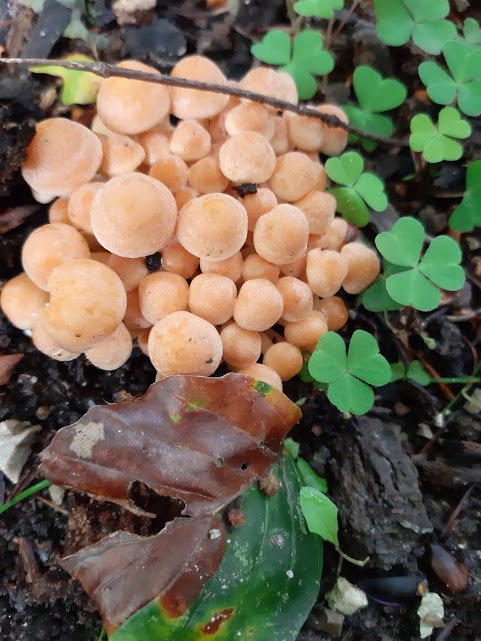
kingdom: Fungi
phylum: Basidiomycota
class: Agaricomycetes
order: Agaricales
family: Strophariaceae
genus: Hypholoma
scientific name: Hypholoma
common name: svovlhat
